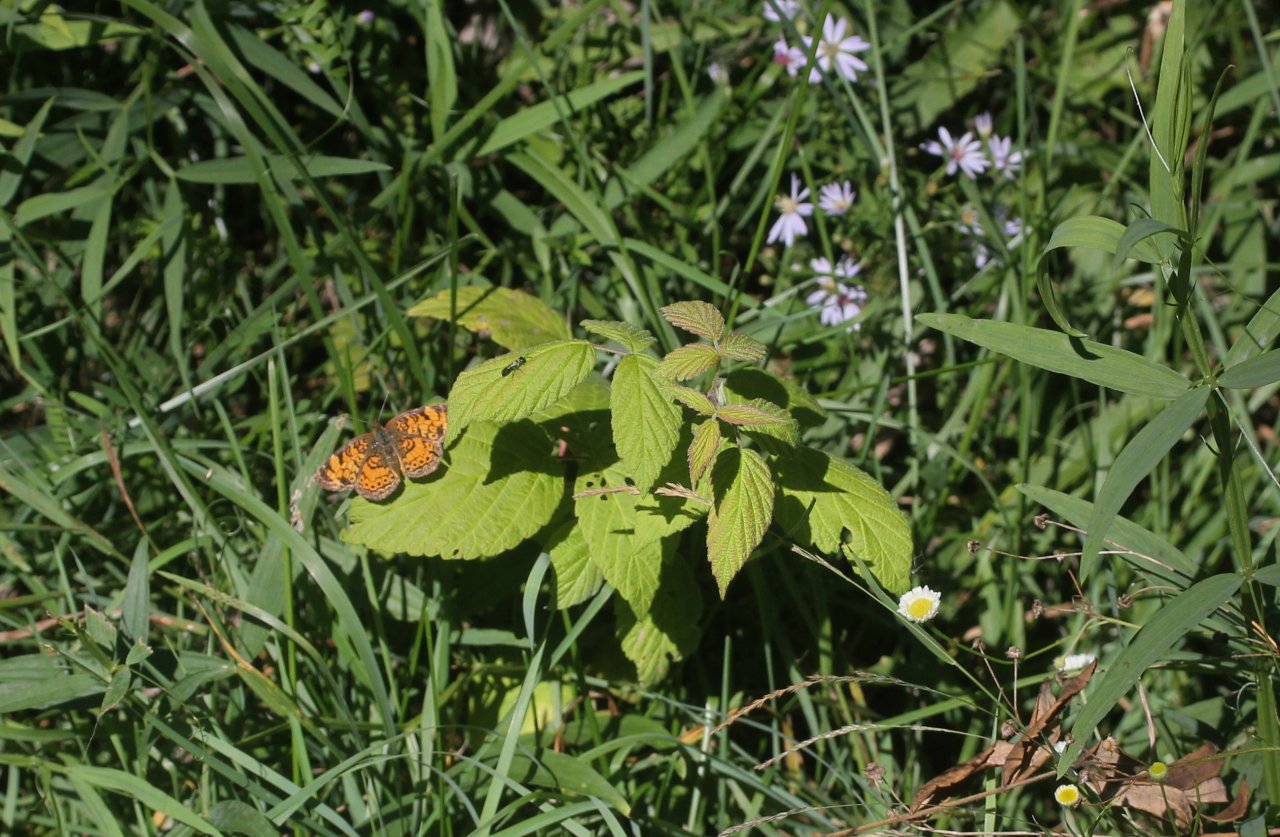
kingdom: Animalia
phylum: Arthropoda
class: Insecta
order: Lepidoptera
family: Nymphalidae
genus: Phyciodes
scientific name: Phyciodes tharos
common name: Northern Crescent
